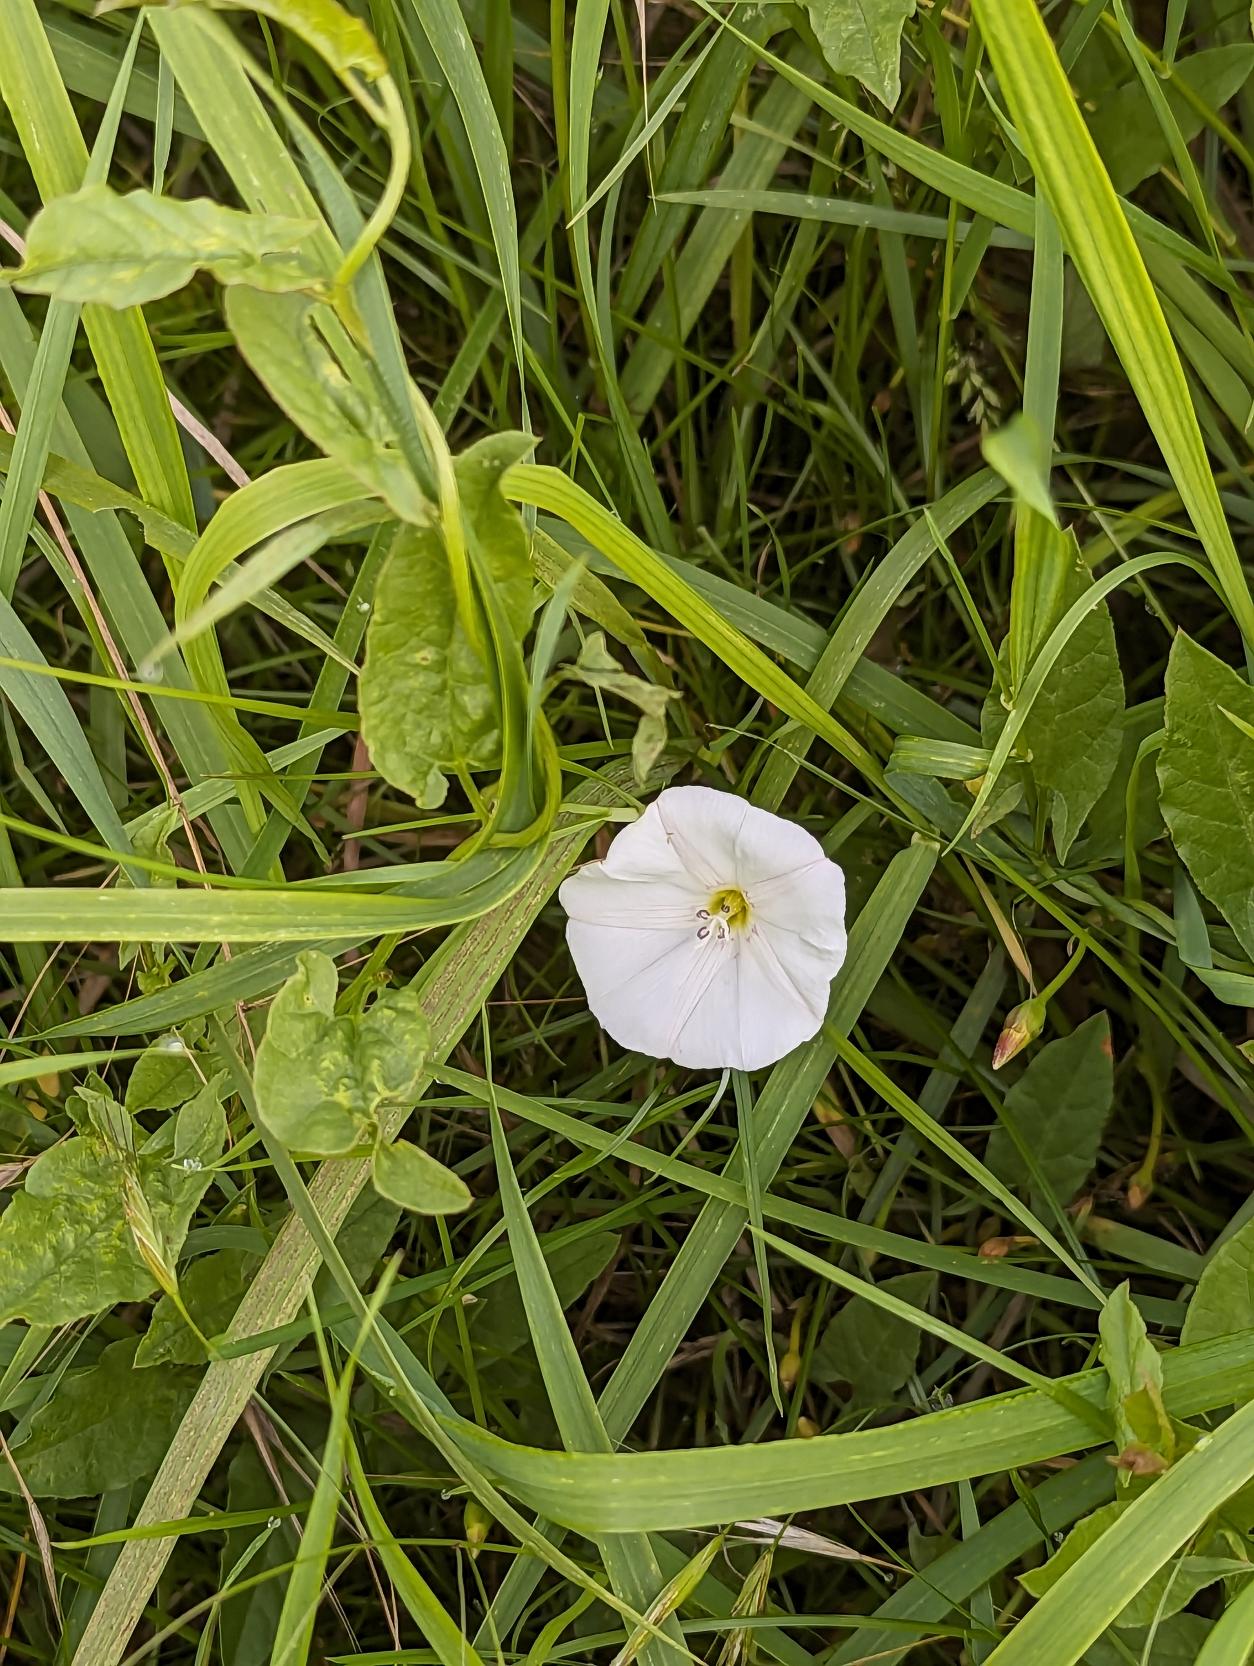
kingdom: Plantae
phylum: Tracheophyta
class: Magnoliopsida
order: Solanales
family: Convolvulaceae
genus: Convolvulus
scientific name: Convolvulus arvensis
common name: Ager-snerle
